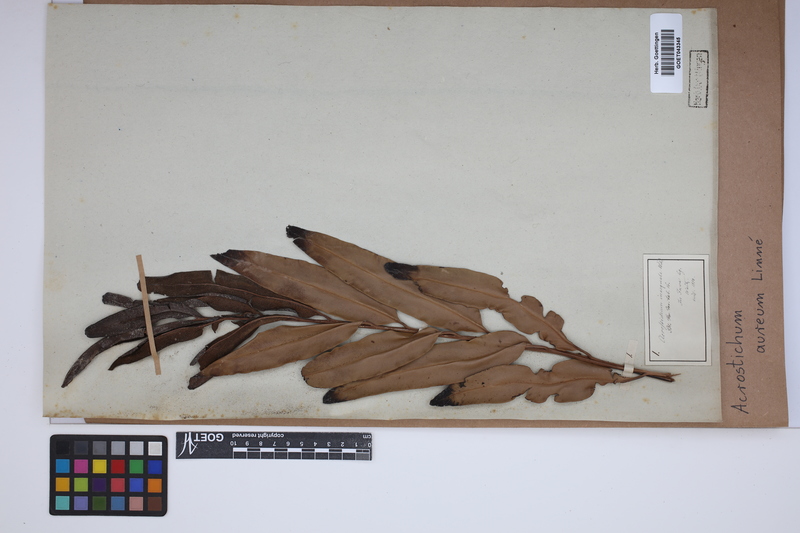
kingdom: Plantae
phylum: Tracheophyta
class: Polypodiopsida
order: Polypodiales
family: Pteridaceae
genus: Acrostichum
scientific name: Acrostichum aureum
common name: Leather fern
